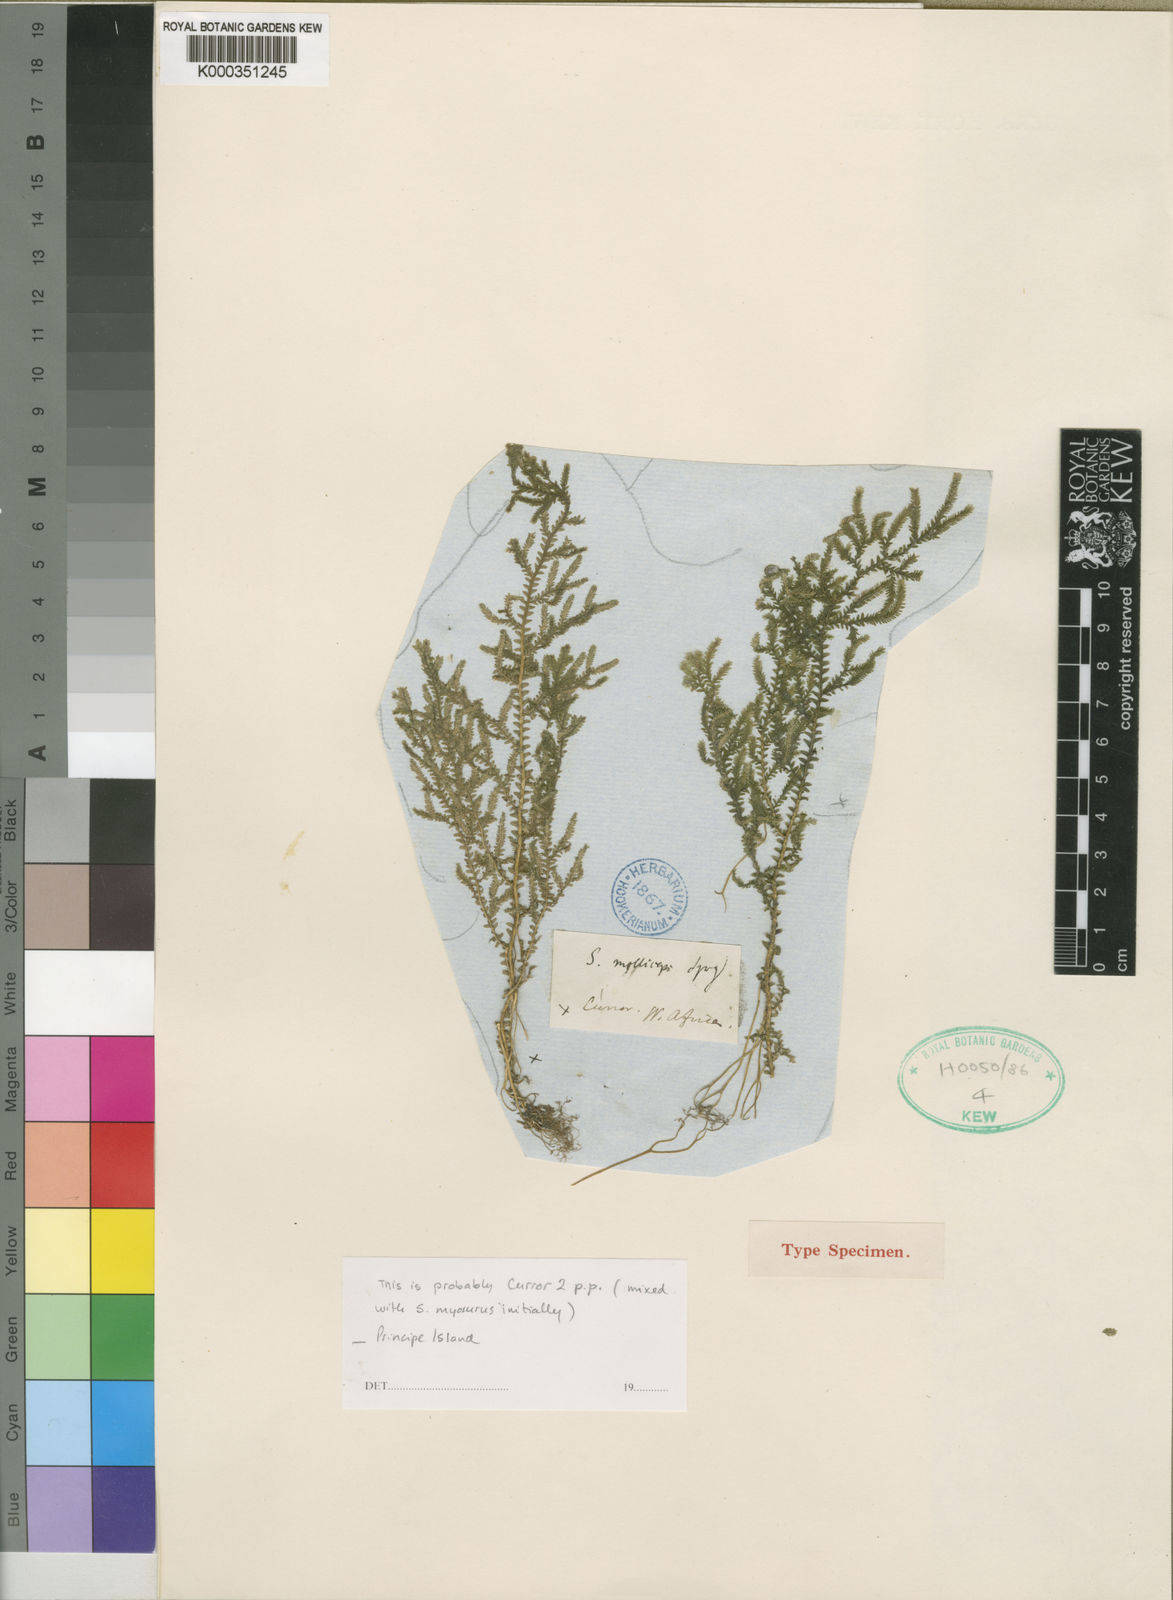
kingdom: Plantae
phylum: Tracheophyta
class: Lycopodiopsida
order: Selaginellales
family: Selaginellaceae
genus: Selaginella
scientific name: Selaginella molliceps
